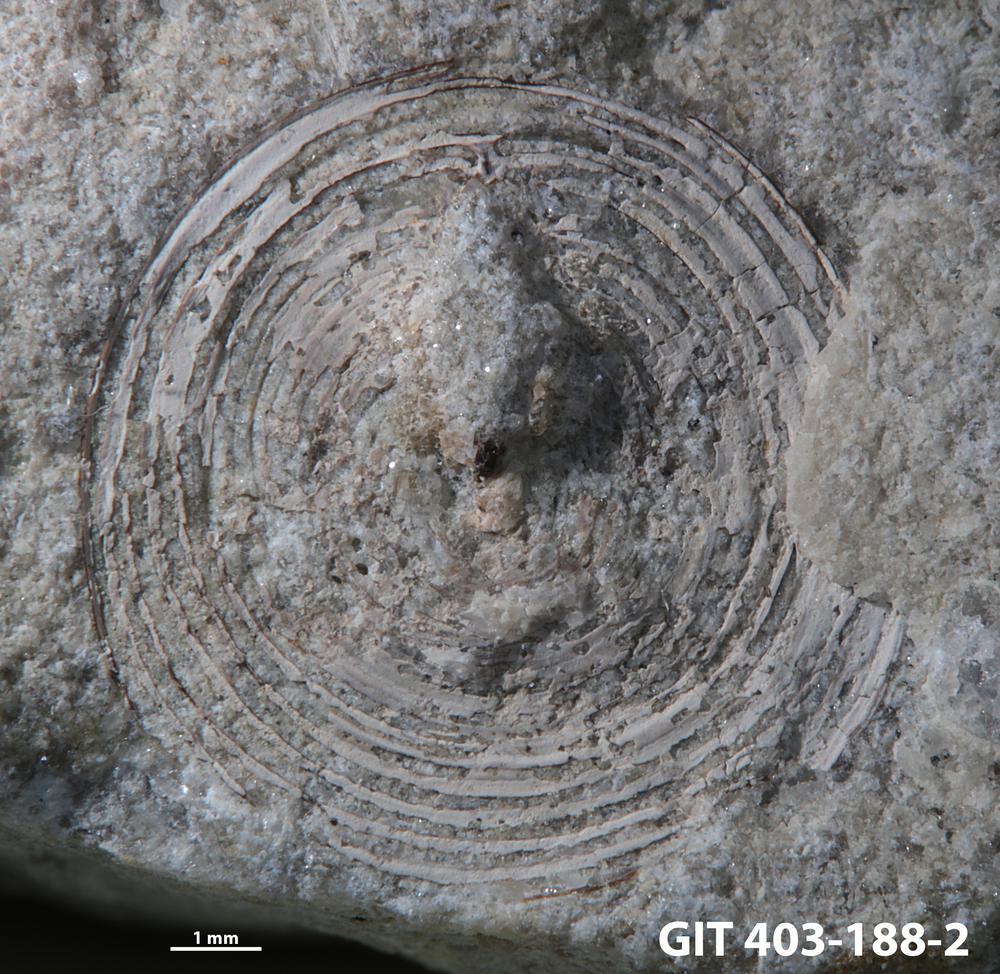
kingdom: Animalia
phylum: Brachiopoda
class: Craniata
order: Craniida
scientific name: Craniida
